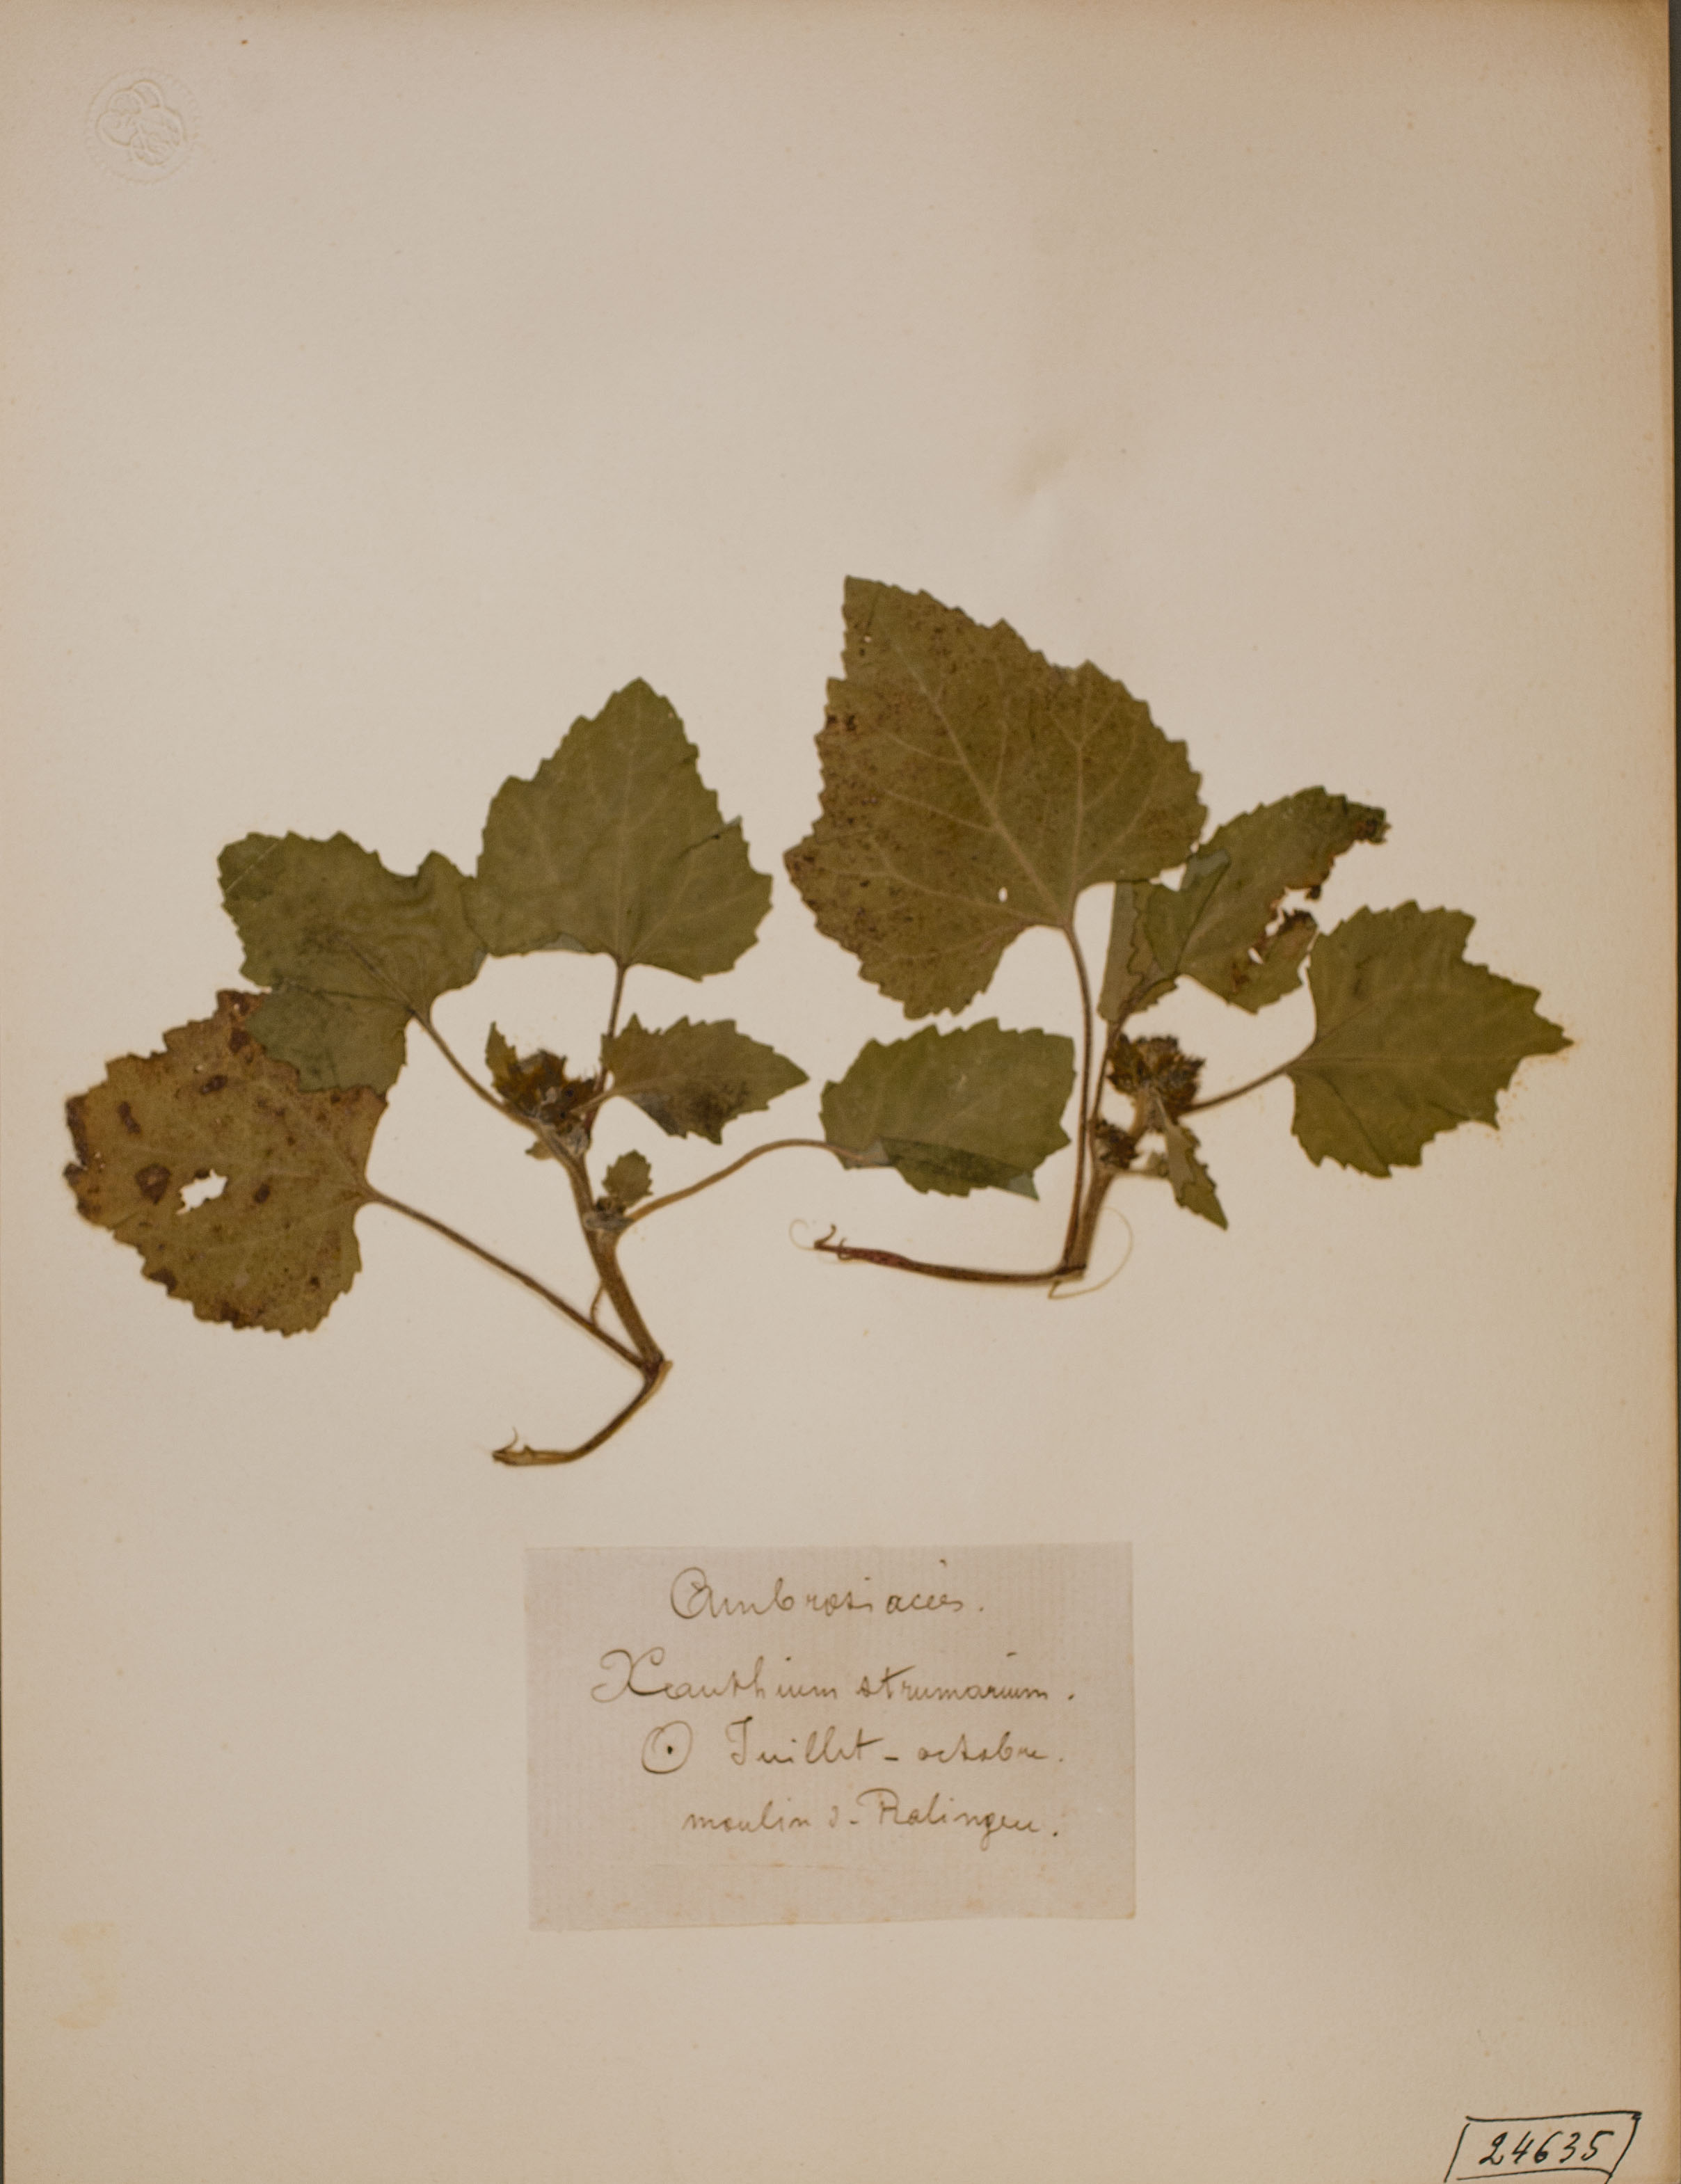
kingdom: Plantae
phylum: Tracheophyta
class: Magnoliopsida
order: Asterales
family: Asteraceae
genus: Xanthium
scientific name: Xanthium strumarium
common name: Rough cocklebur
